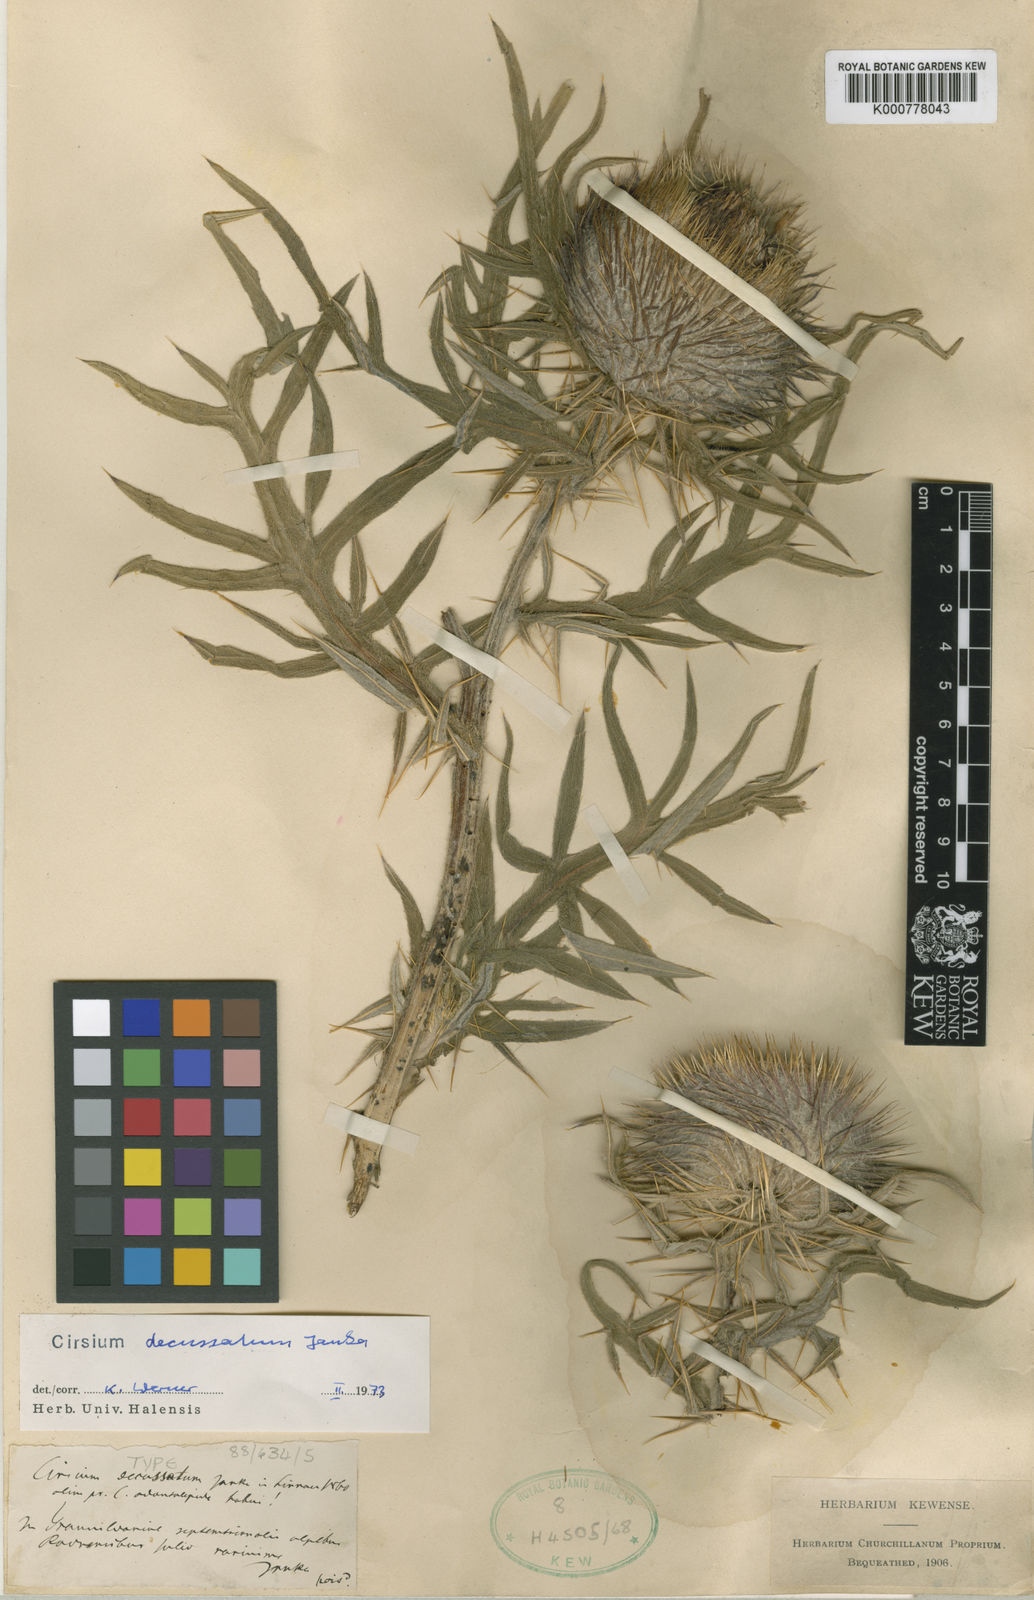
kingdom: Plantae
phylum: Tracheophyta
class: Magnoliopsida
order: Asterales
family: Asteraceae
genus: Lophiolepis
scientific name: Lophiolepis decussata
